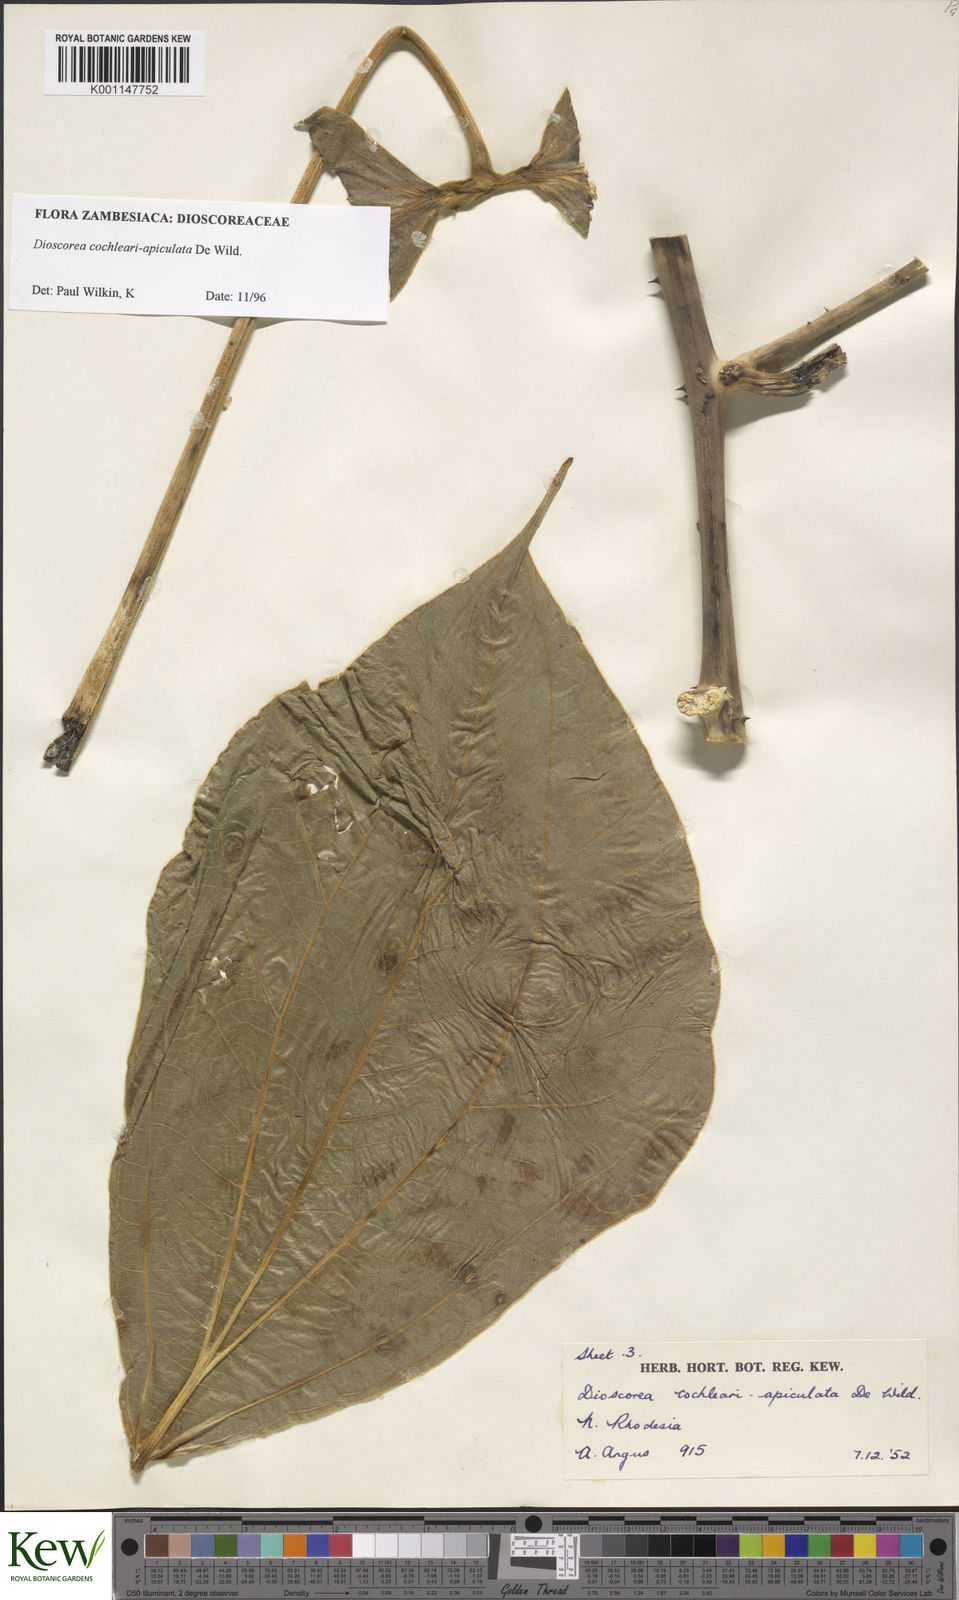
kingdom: Plantae
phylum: Tracheophyta
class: Liliopsida
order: Dioscoreales
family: Dioscoreaceae
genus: Dioscorea
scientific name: Dioscorea cochleariapiculata
